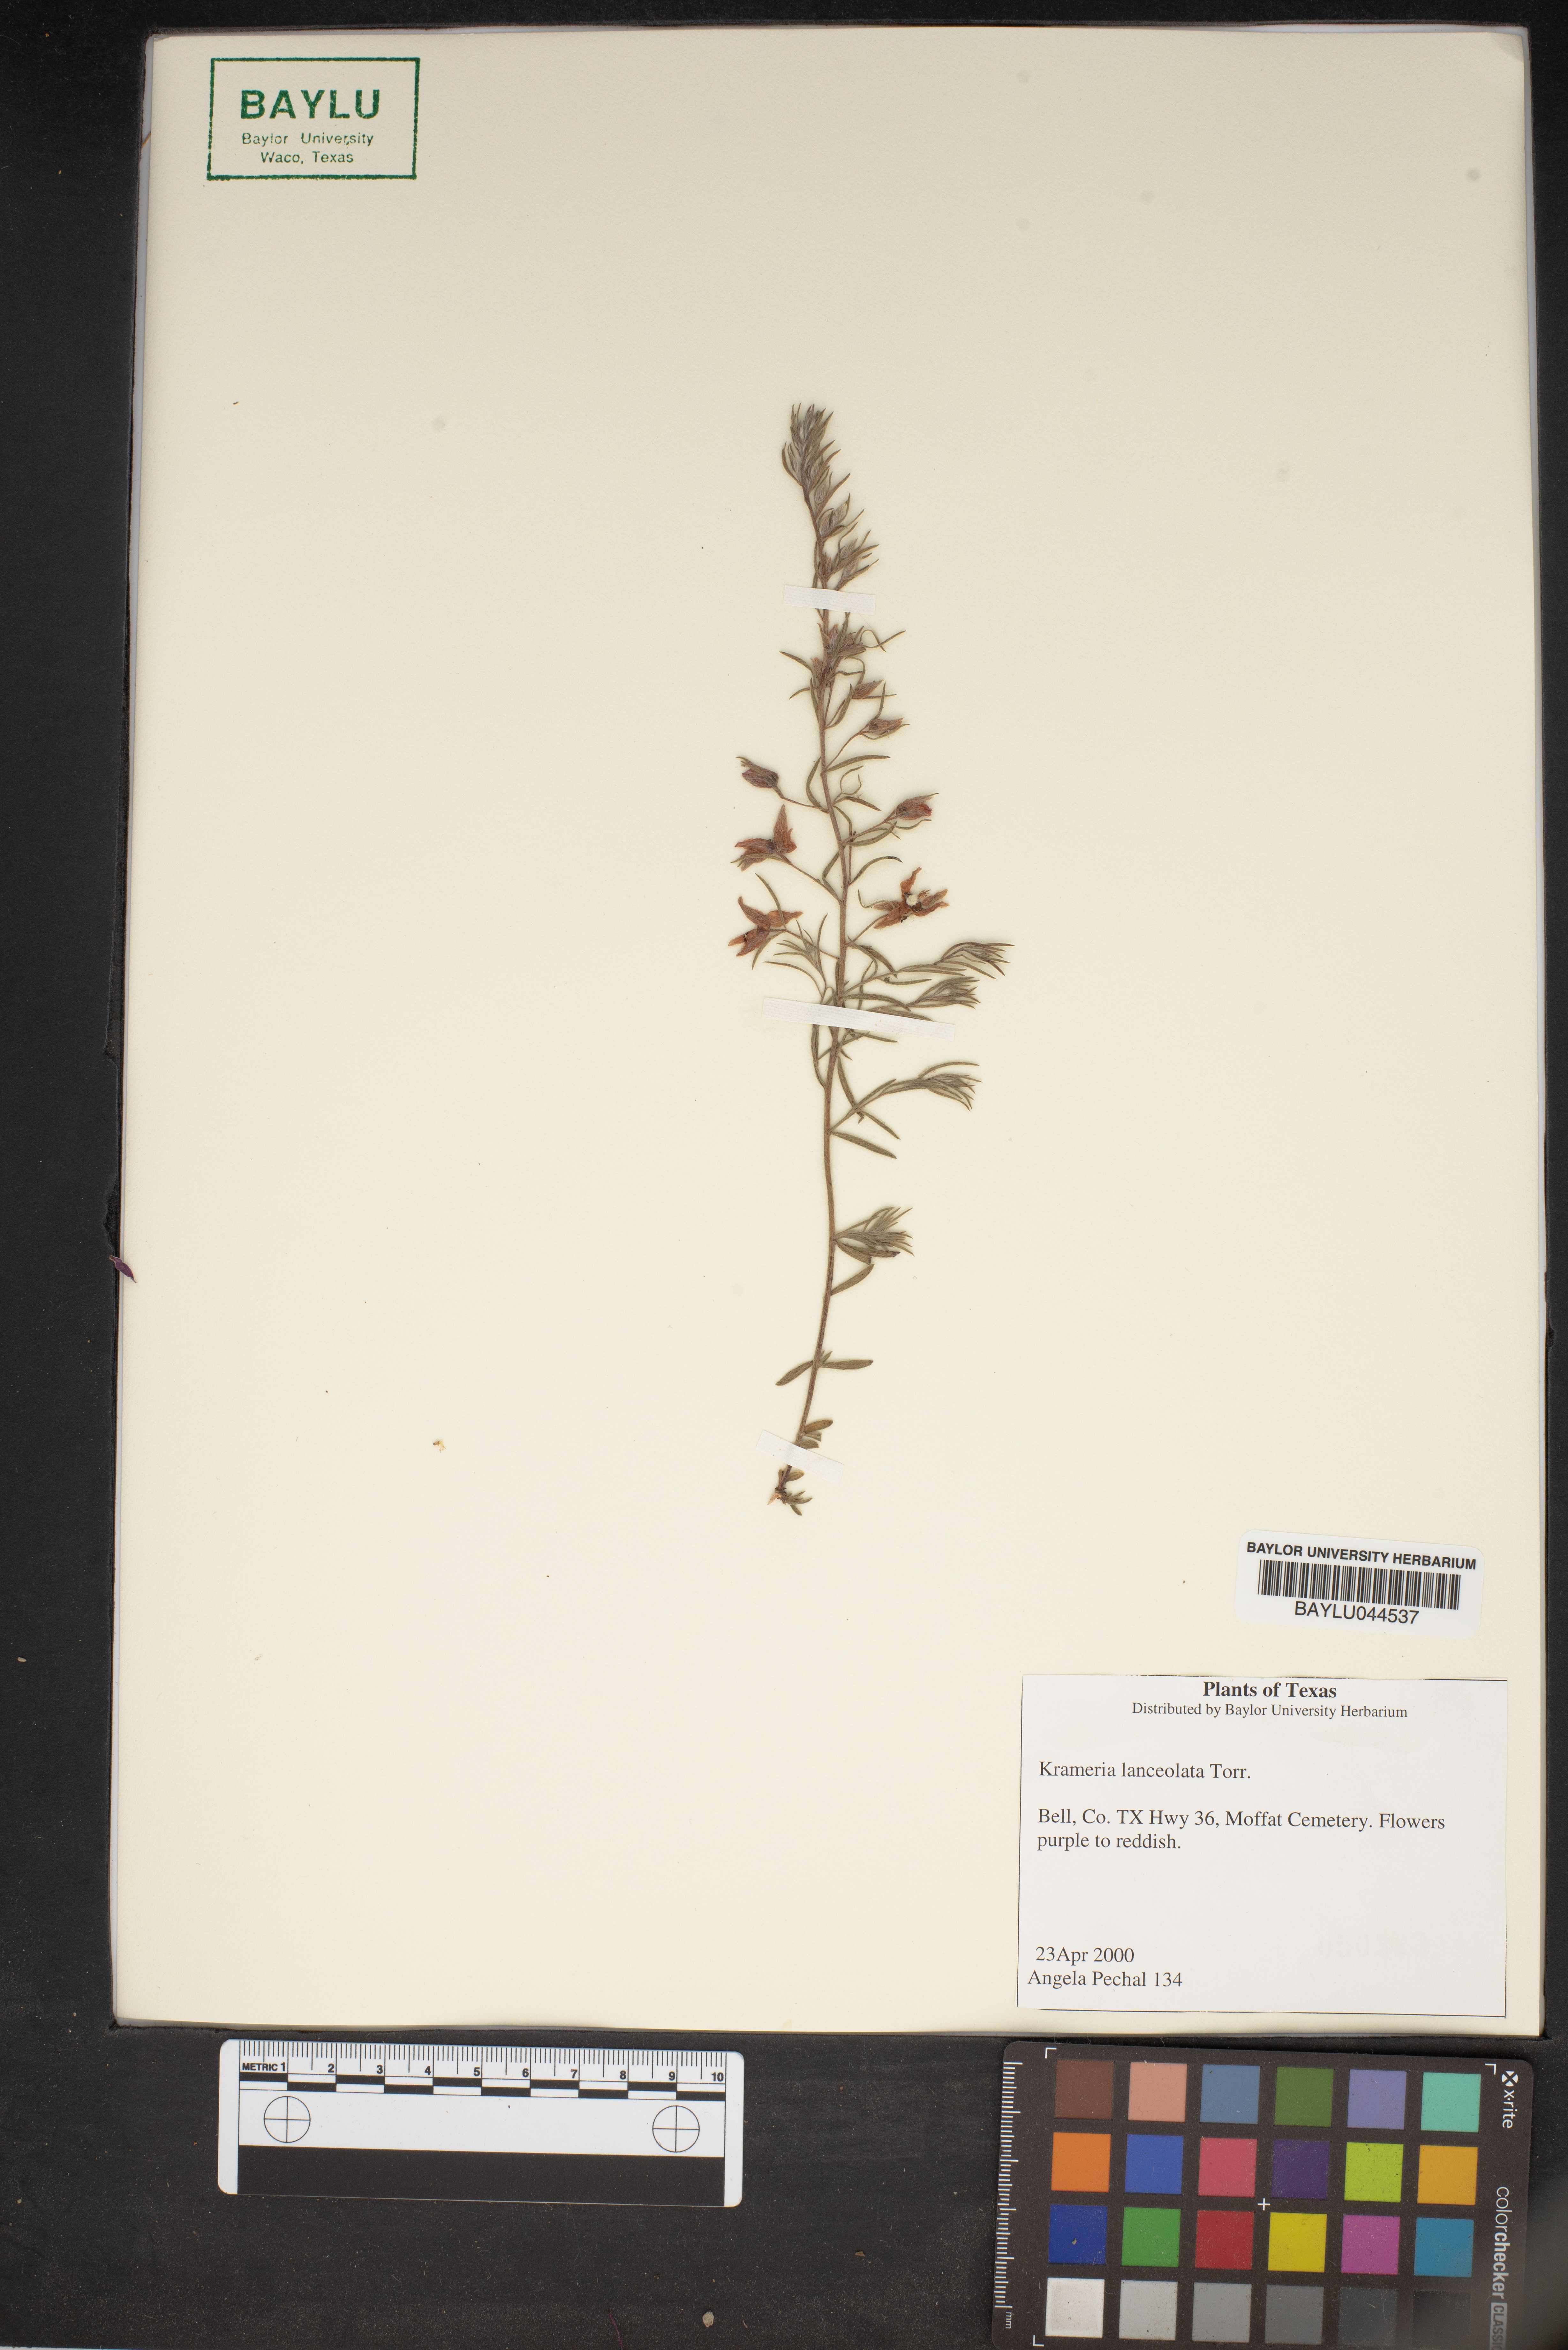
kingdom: Plantae
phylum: Tracheophyta
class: Magnoliopsida
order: Zygophyllales
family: Krameriaceae
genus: Krameria
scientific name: Krameria lanceolata
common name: Ratany
